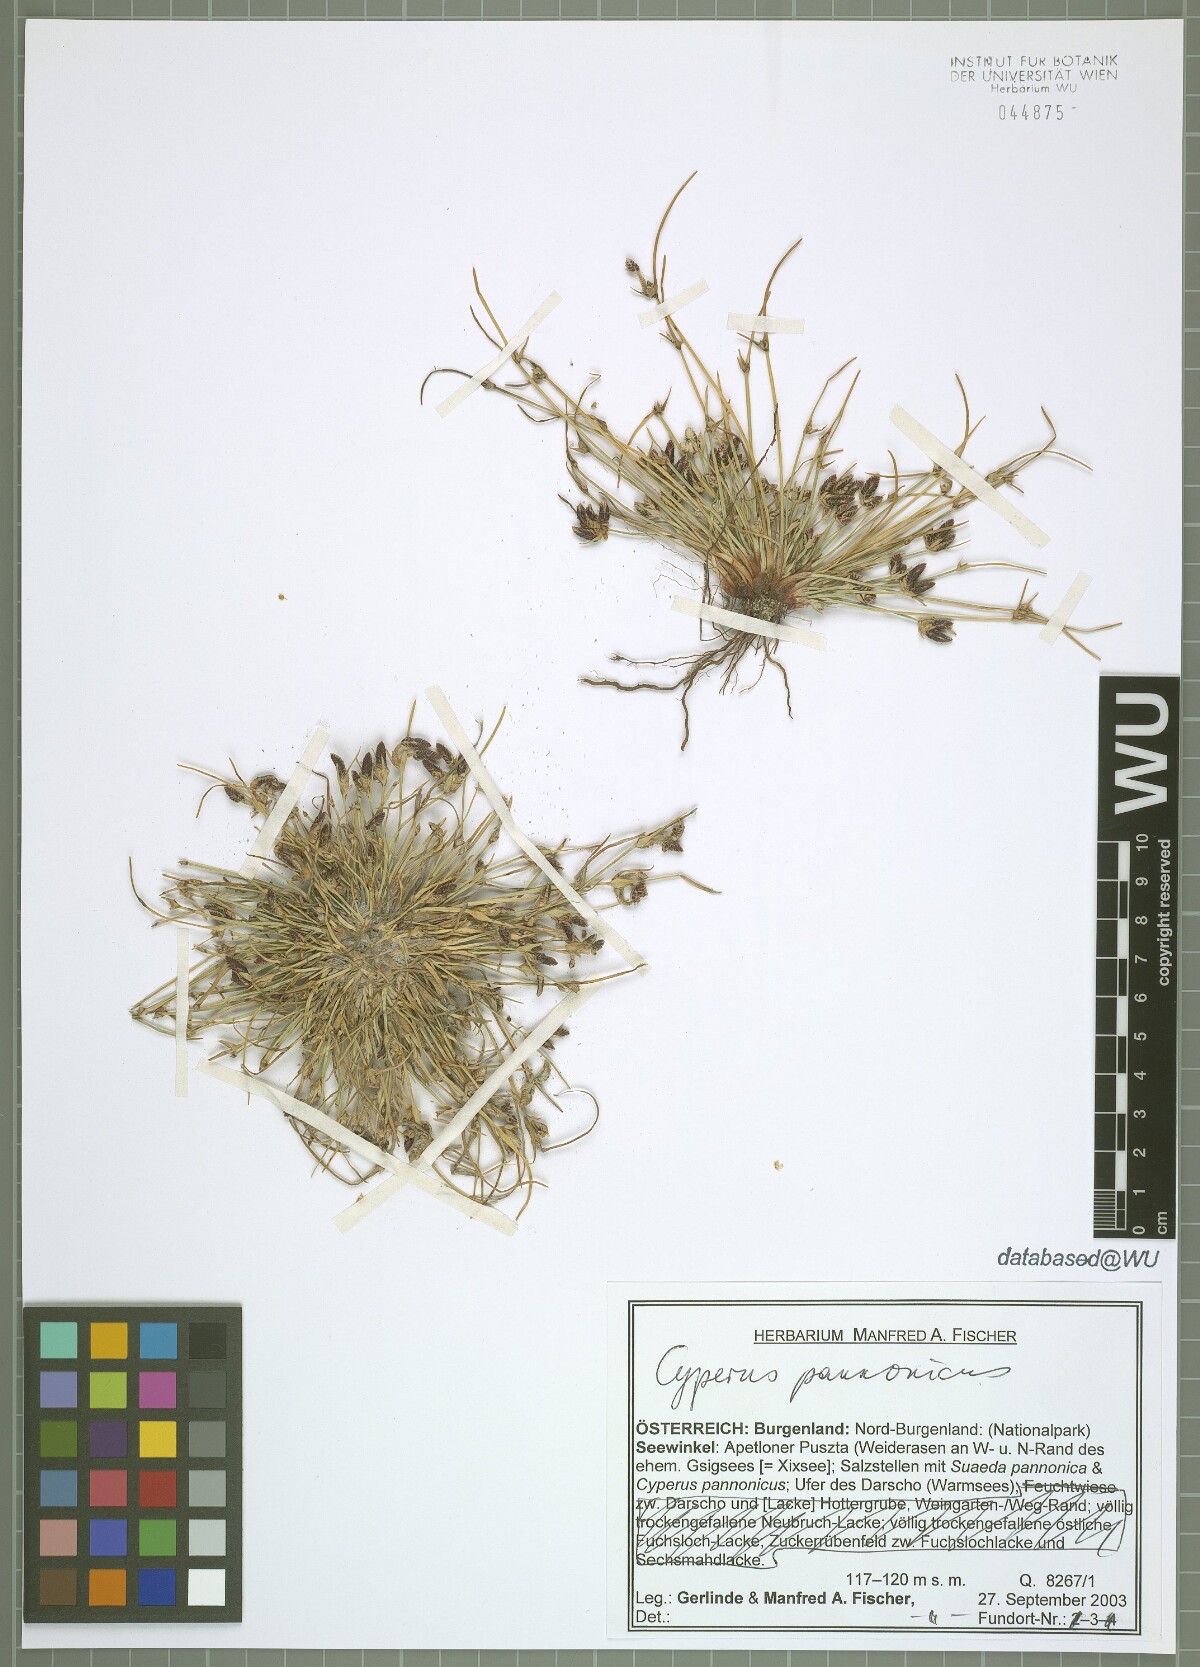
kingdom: Plantae
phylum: Tracheophyta
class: Liliopsida
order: Poales
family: Cyperaceae
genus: Cyperus
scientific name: Cyperus pannonicus
